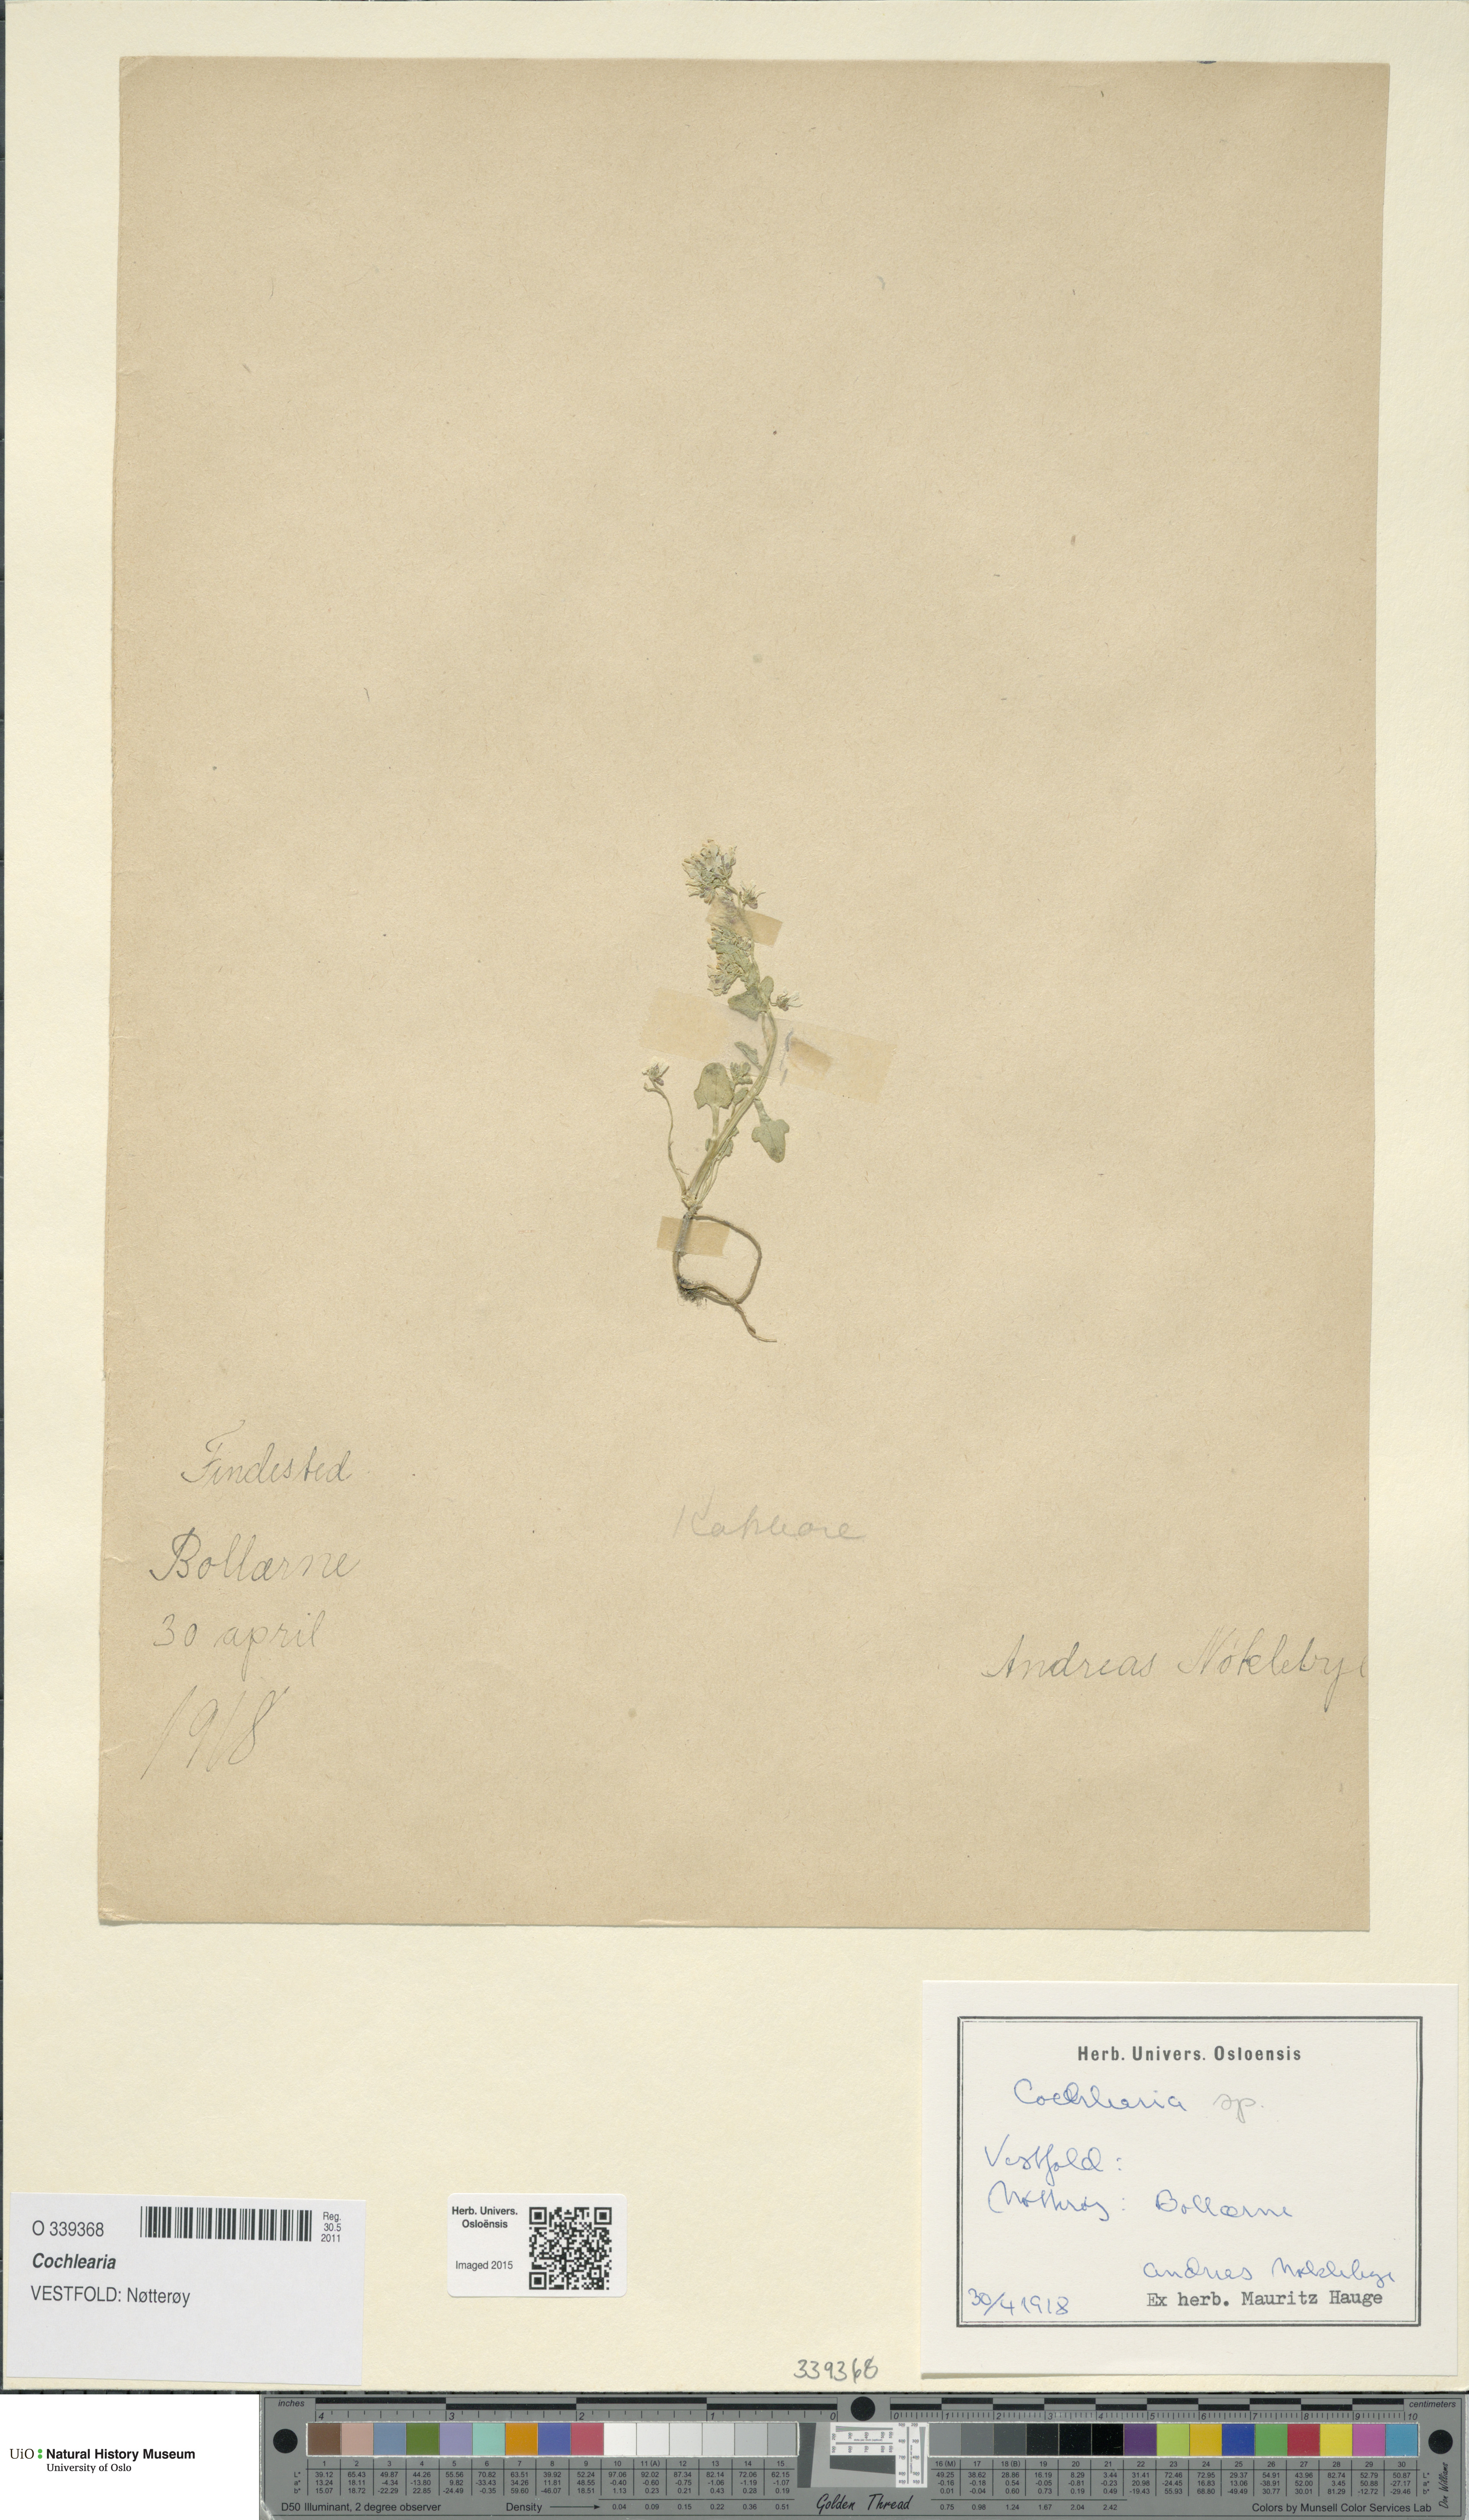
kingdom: Plantae
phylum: Tracheophyta
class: Magnoliopsida
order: Brassicales
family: Brassicaceae
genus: Cochlearia
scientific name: Cochlearia
